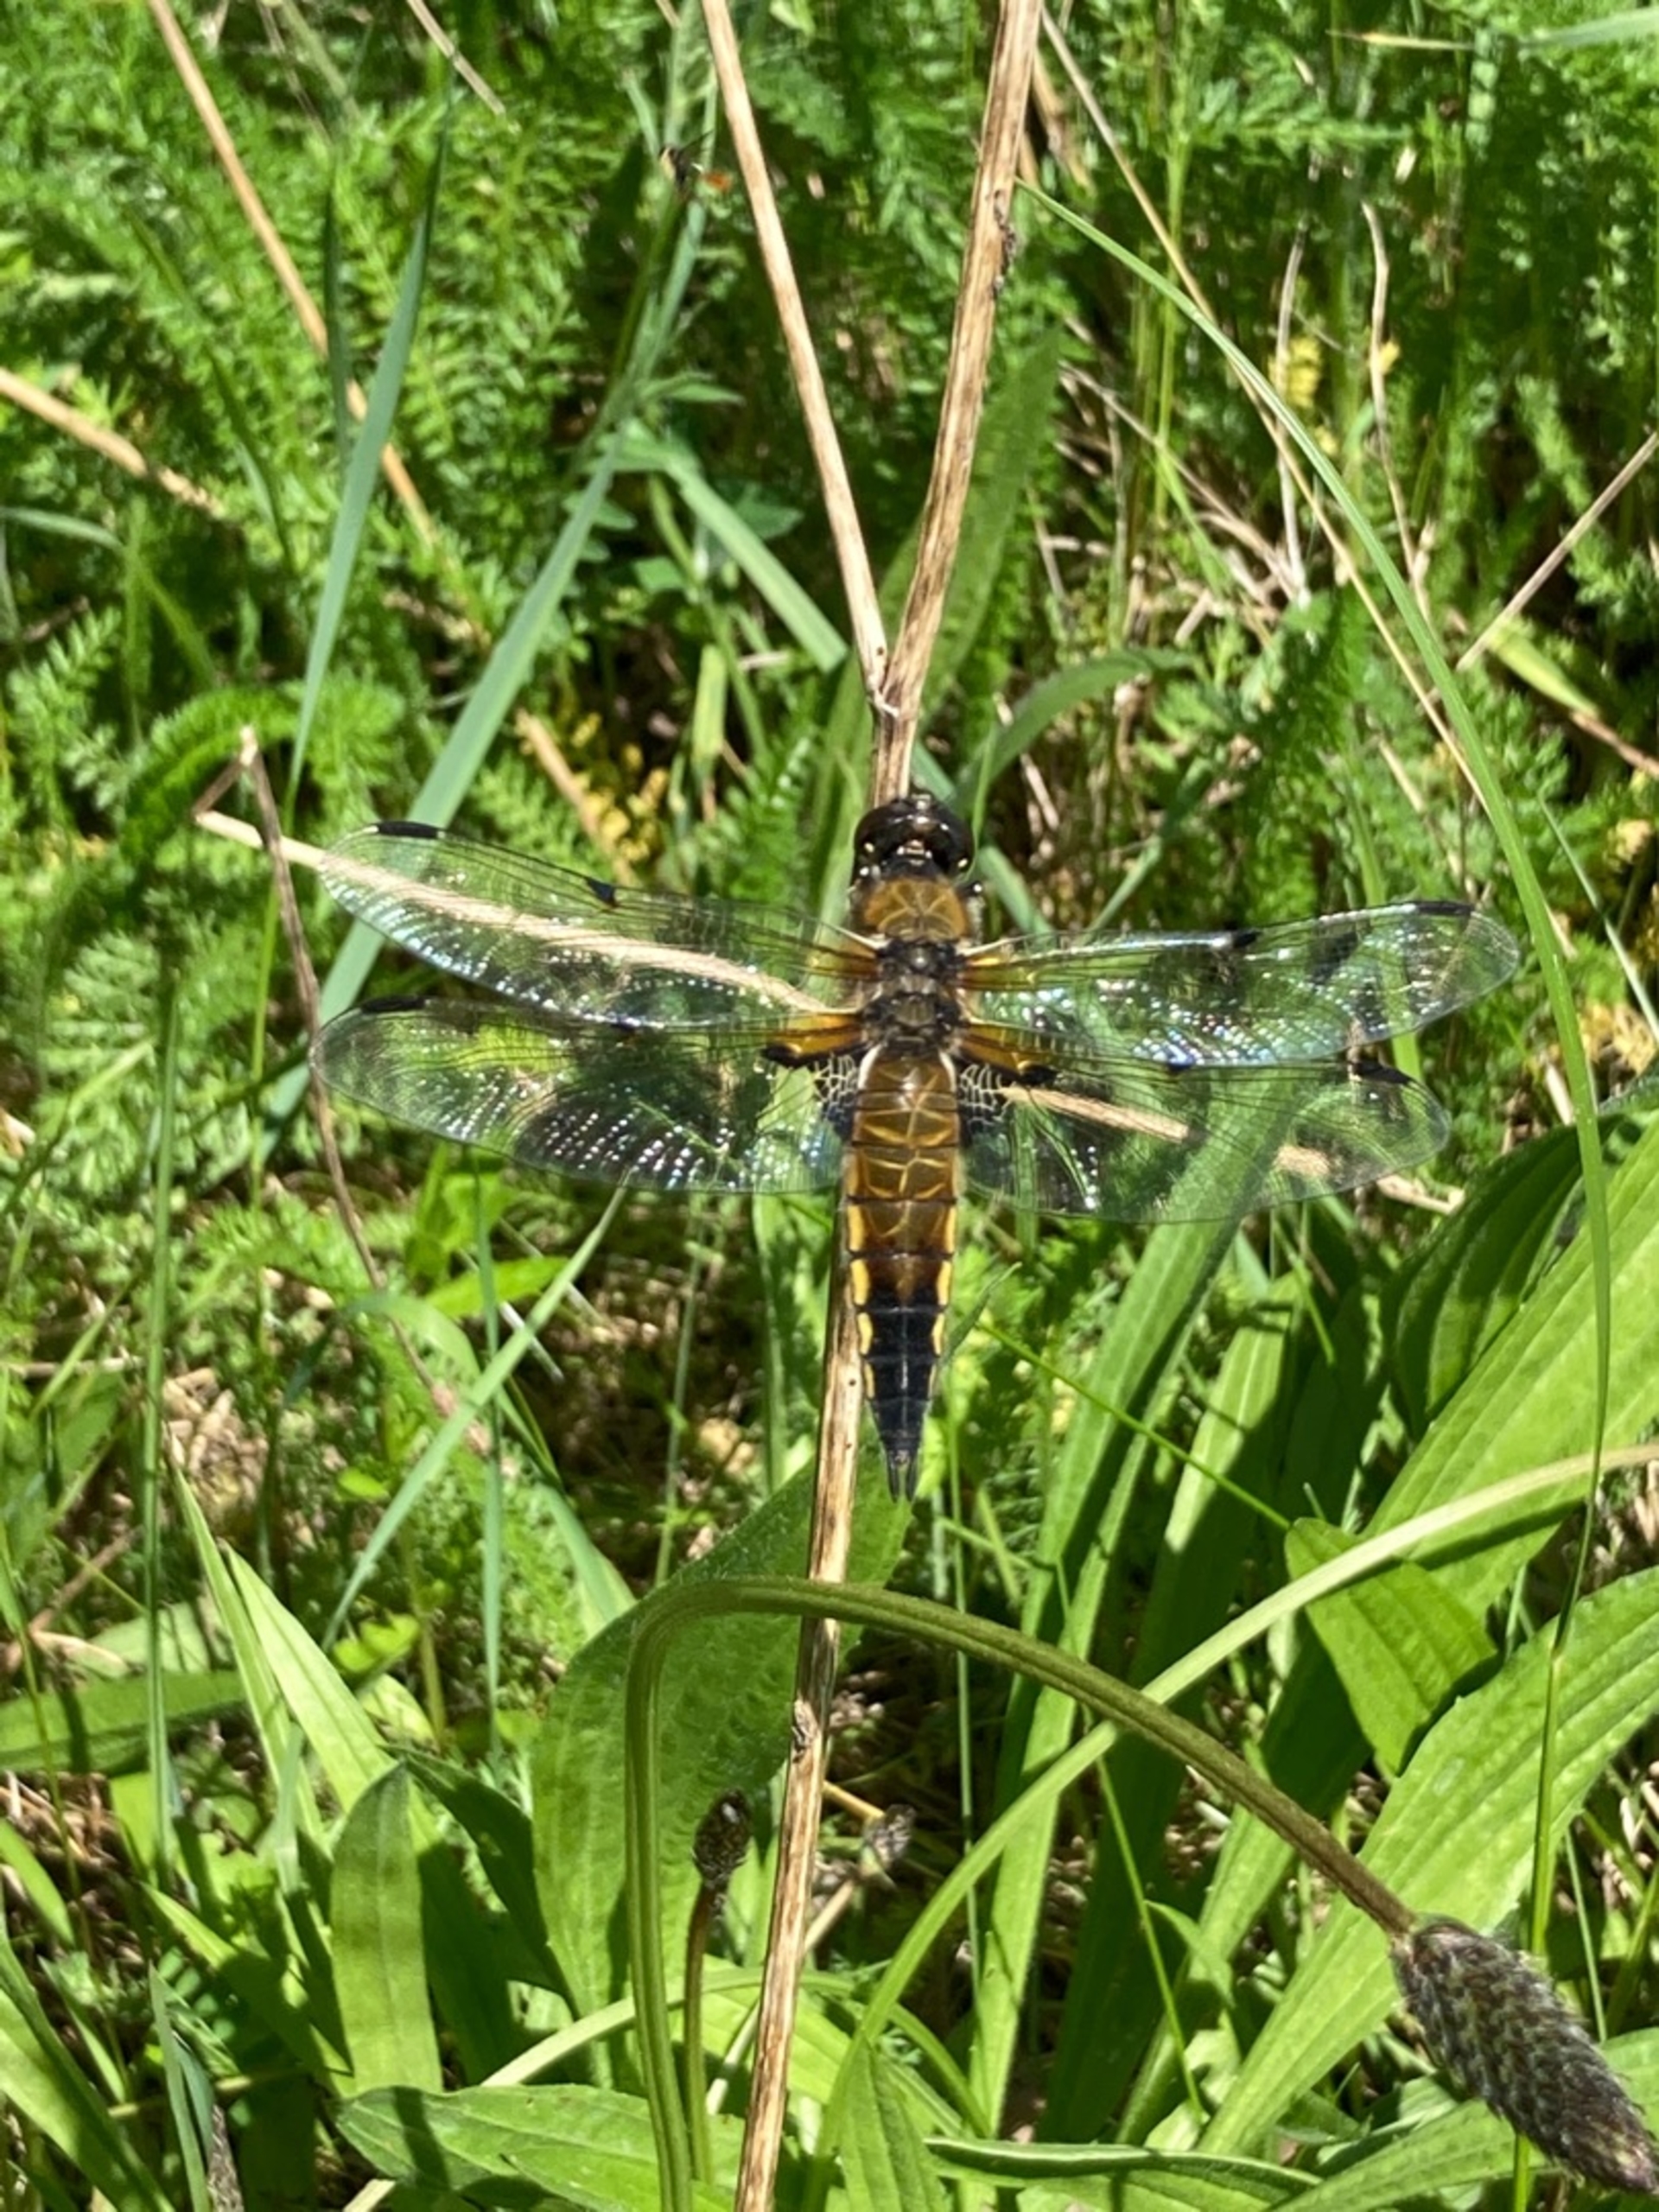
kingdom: Animalia
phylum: Arthropoda
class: Insecta
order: Odonata
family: Libellulidae
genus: Libellula
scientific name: Libellula quadrimaculata
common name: Fireplettet libel
